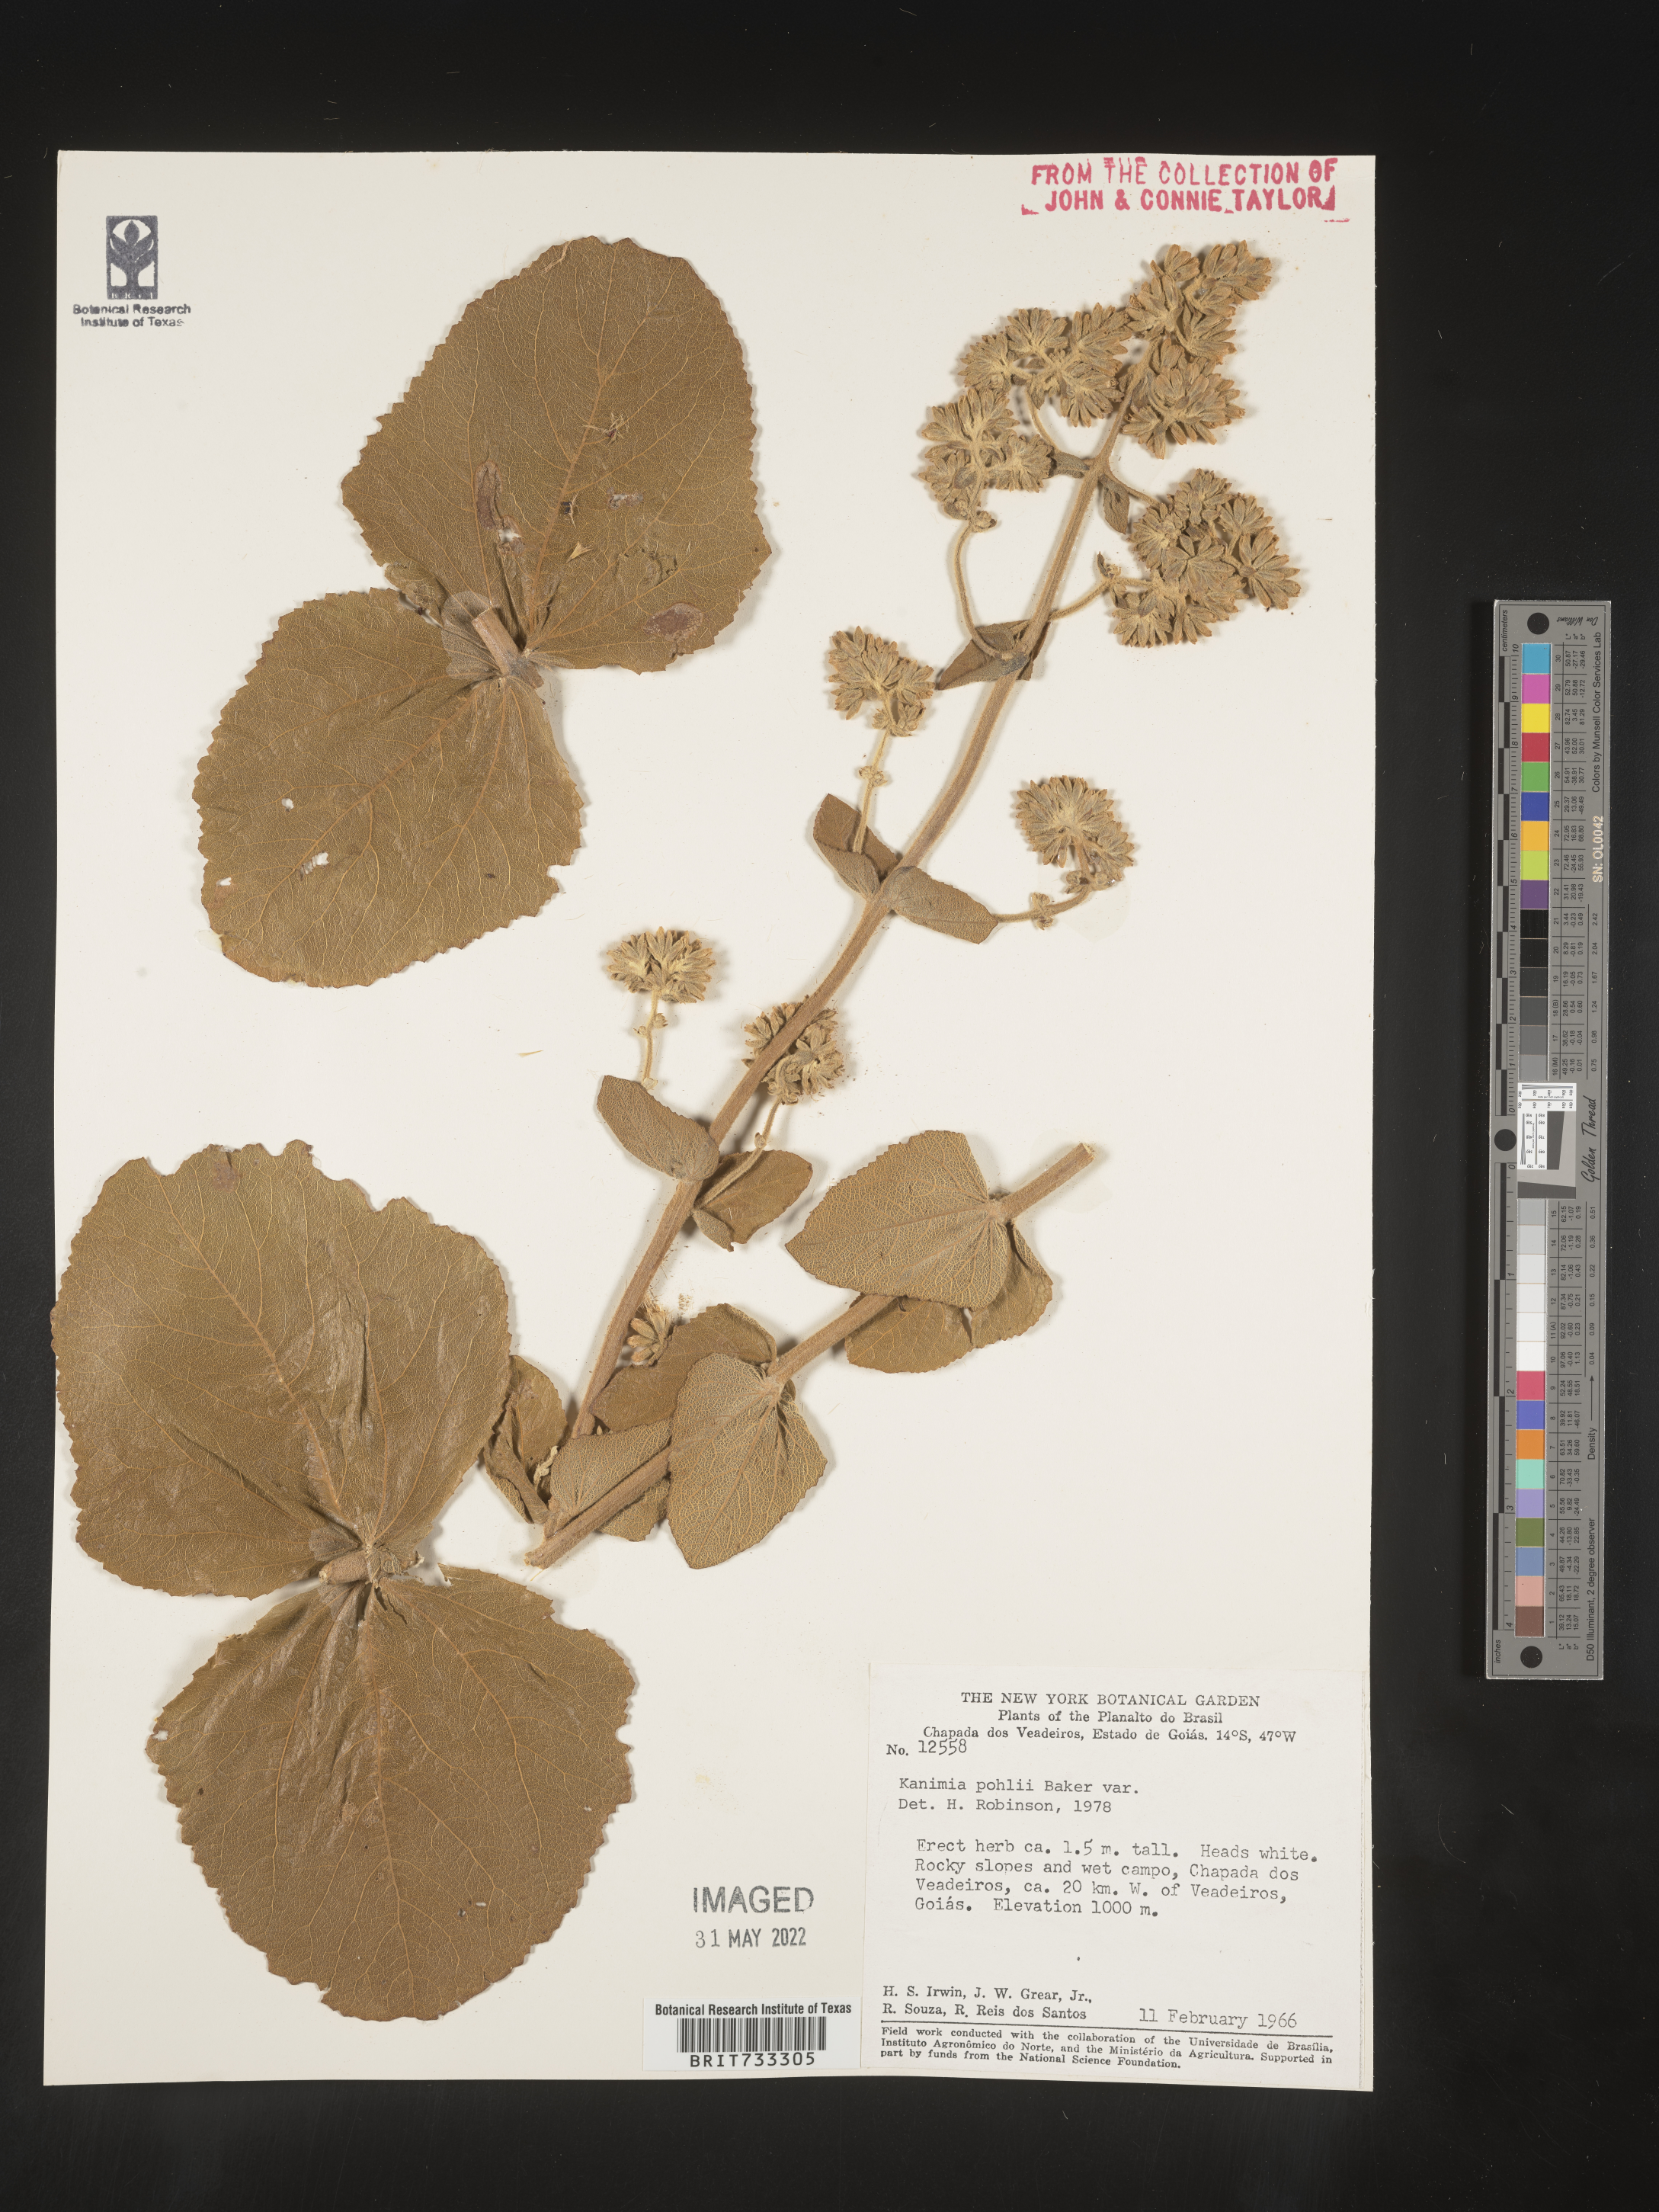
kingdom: Plantae
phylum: Tracheophyta
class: Magnoliopsida
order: Asterales
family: Asteraceae
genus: Mikania
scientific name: Mikania
